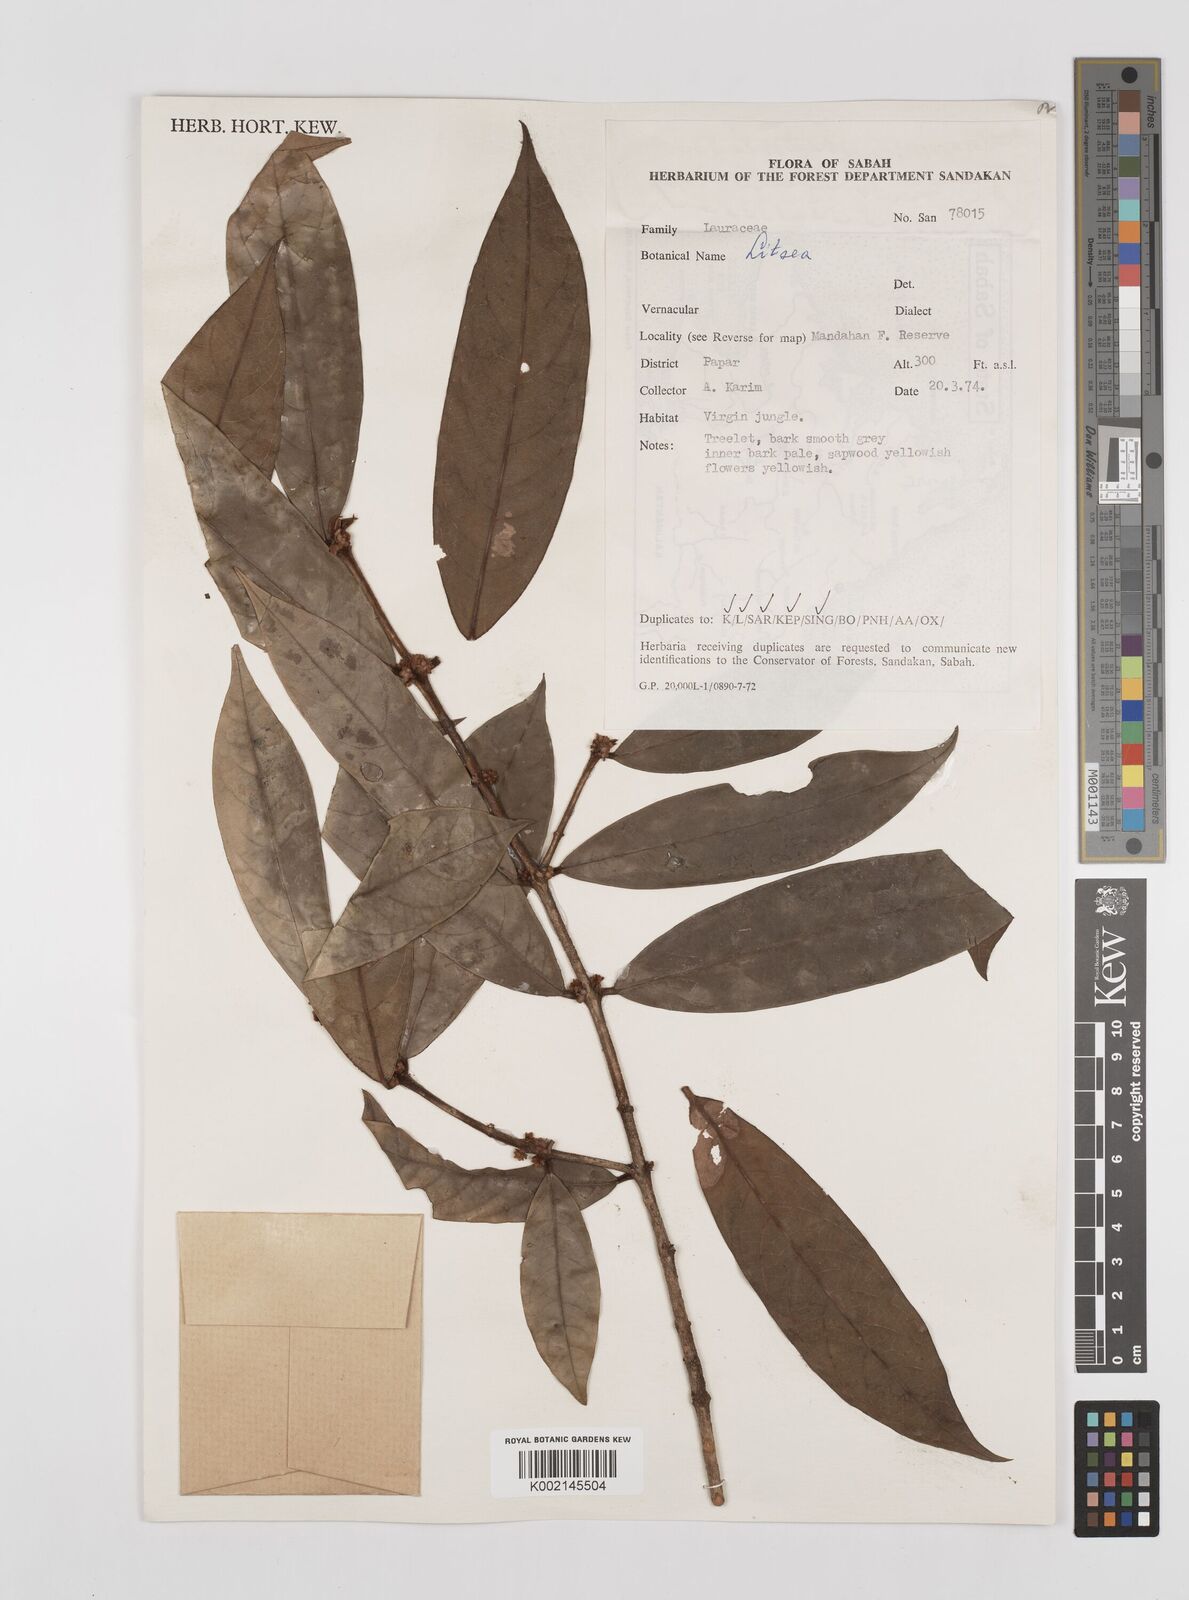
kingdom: Plantae
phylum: Tracheophyta
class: Magnoliopsida
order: Laurales
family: Lauraceae
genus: Litsea
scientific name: Litsea
